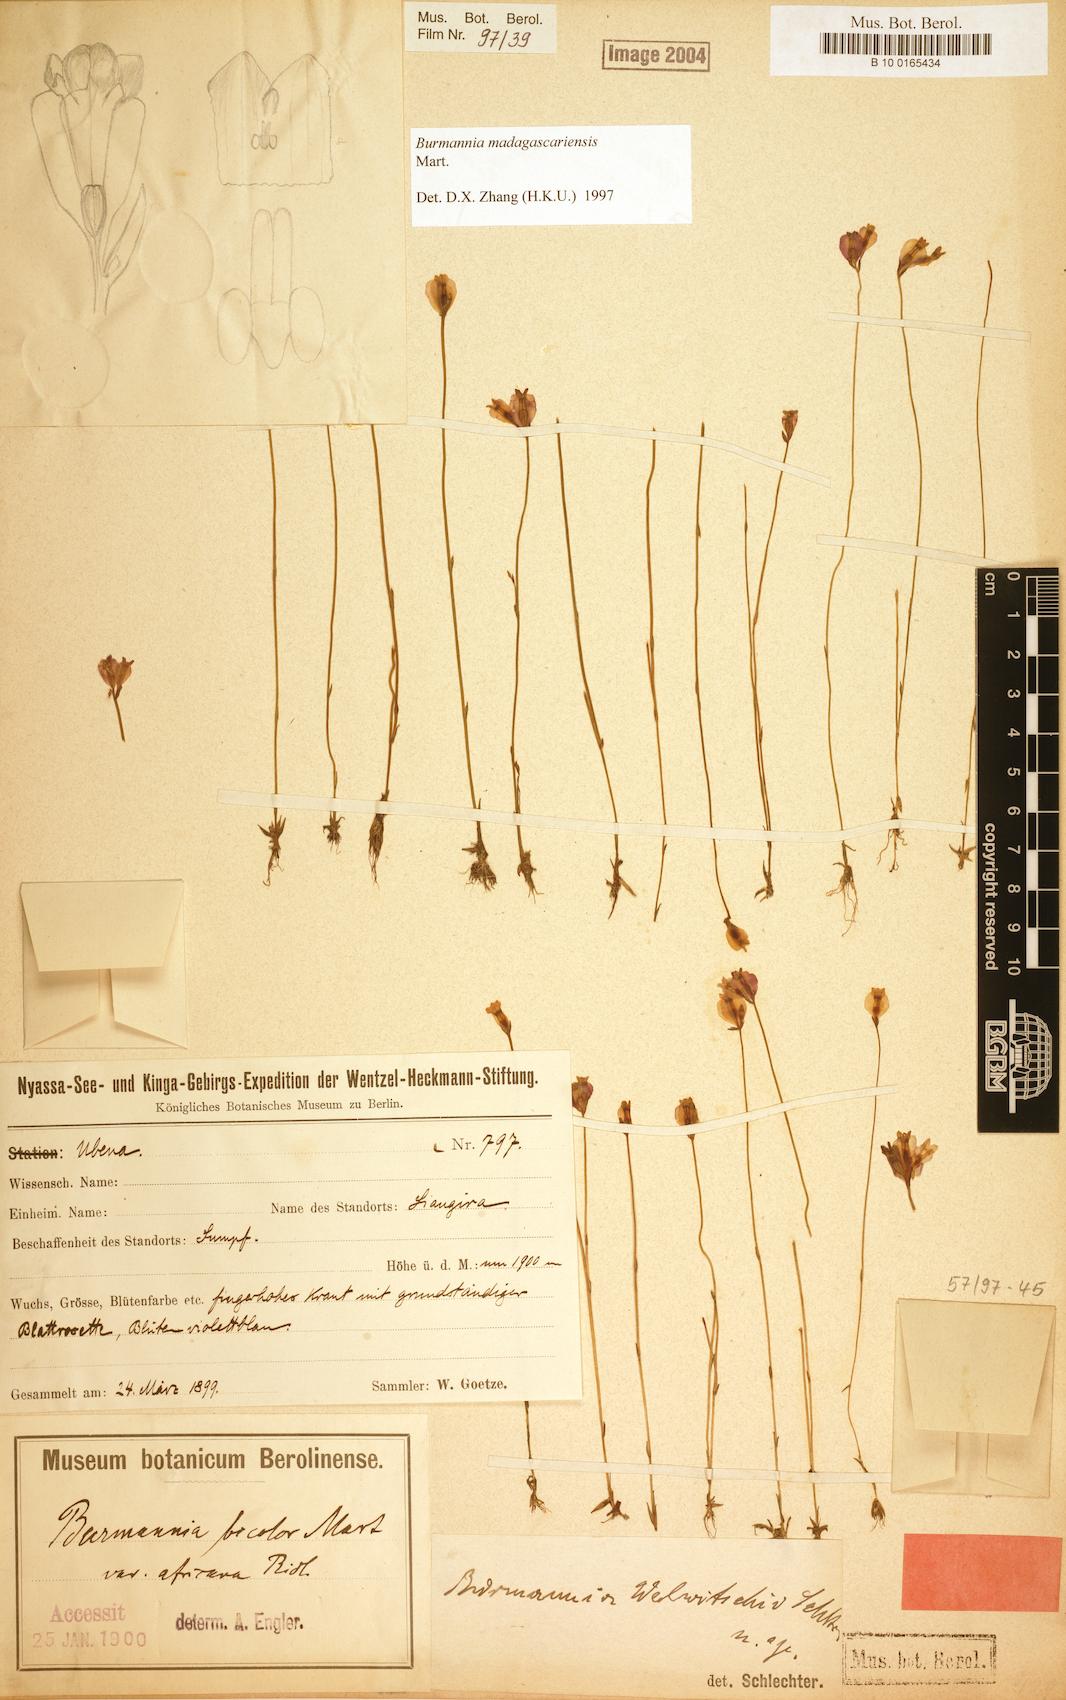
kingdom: Plantae
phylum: Tracheophyta
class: Liliopsida
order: Dioscoreales
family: Burmanniaceae
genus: Burmannia
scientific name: Burmannia madagascariensis
